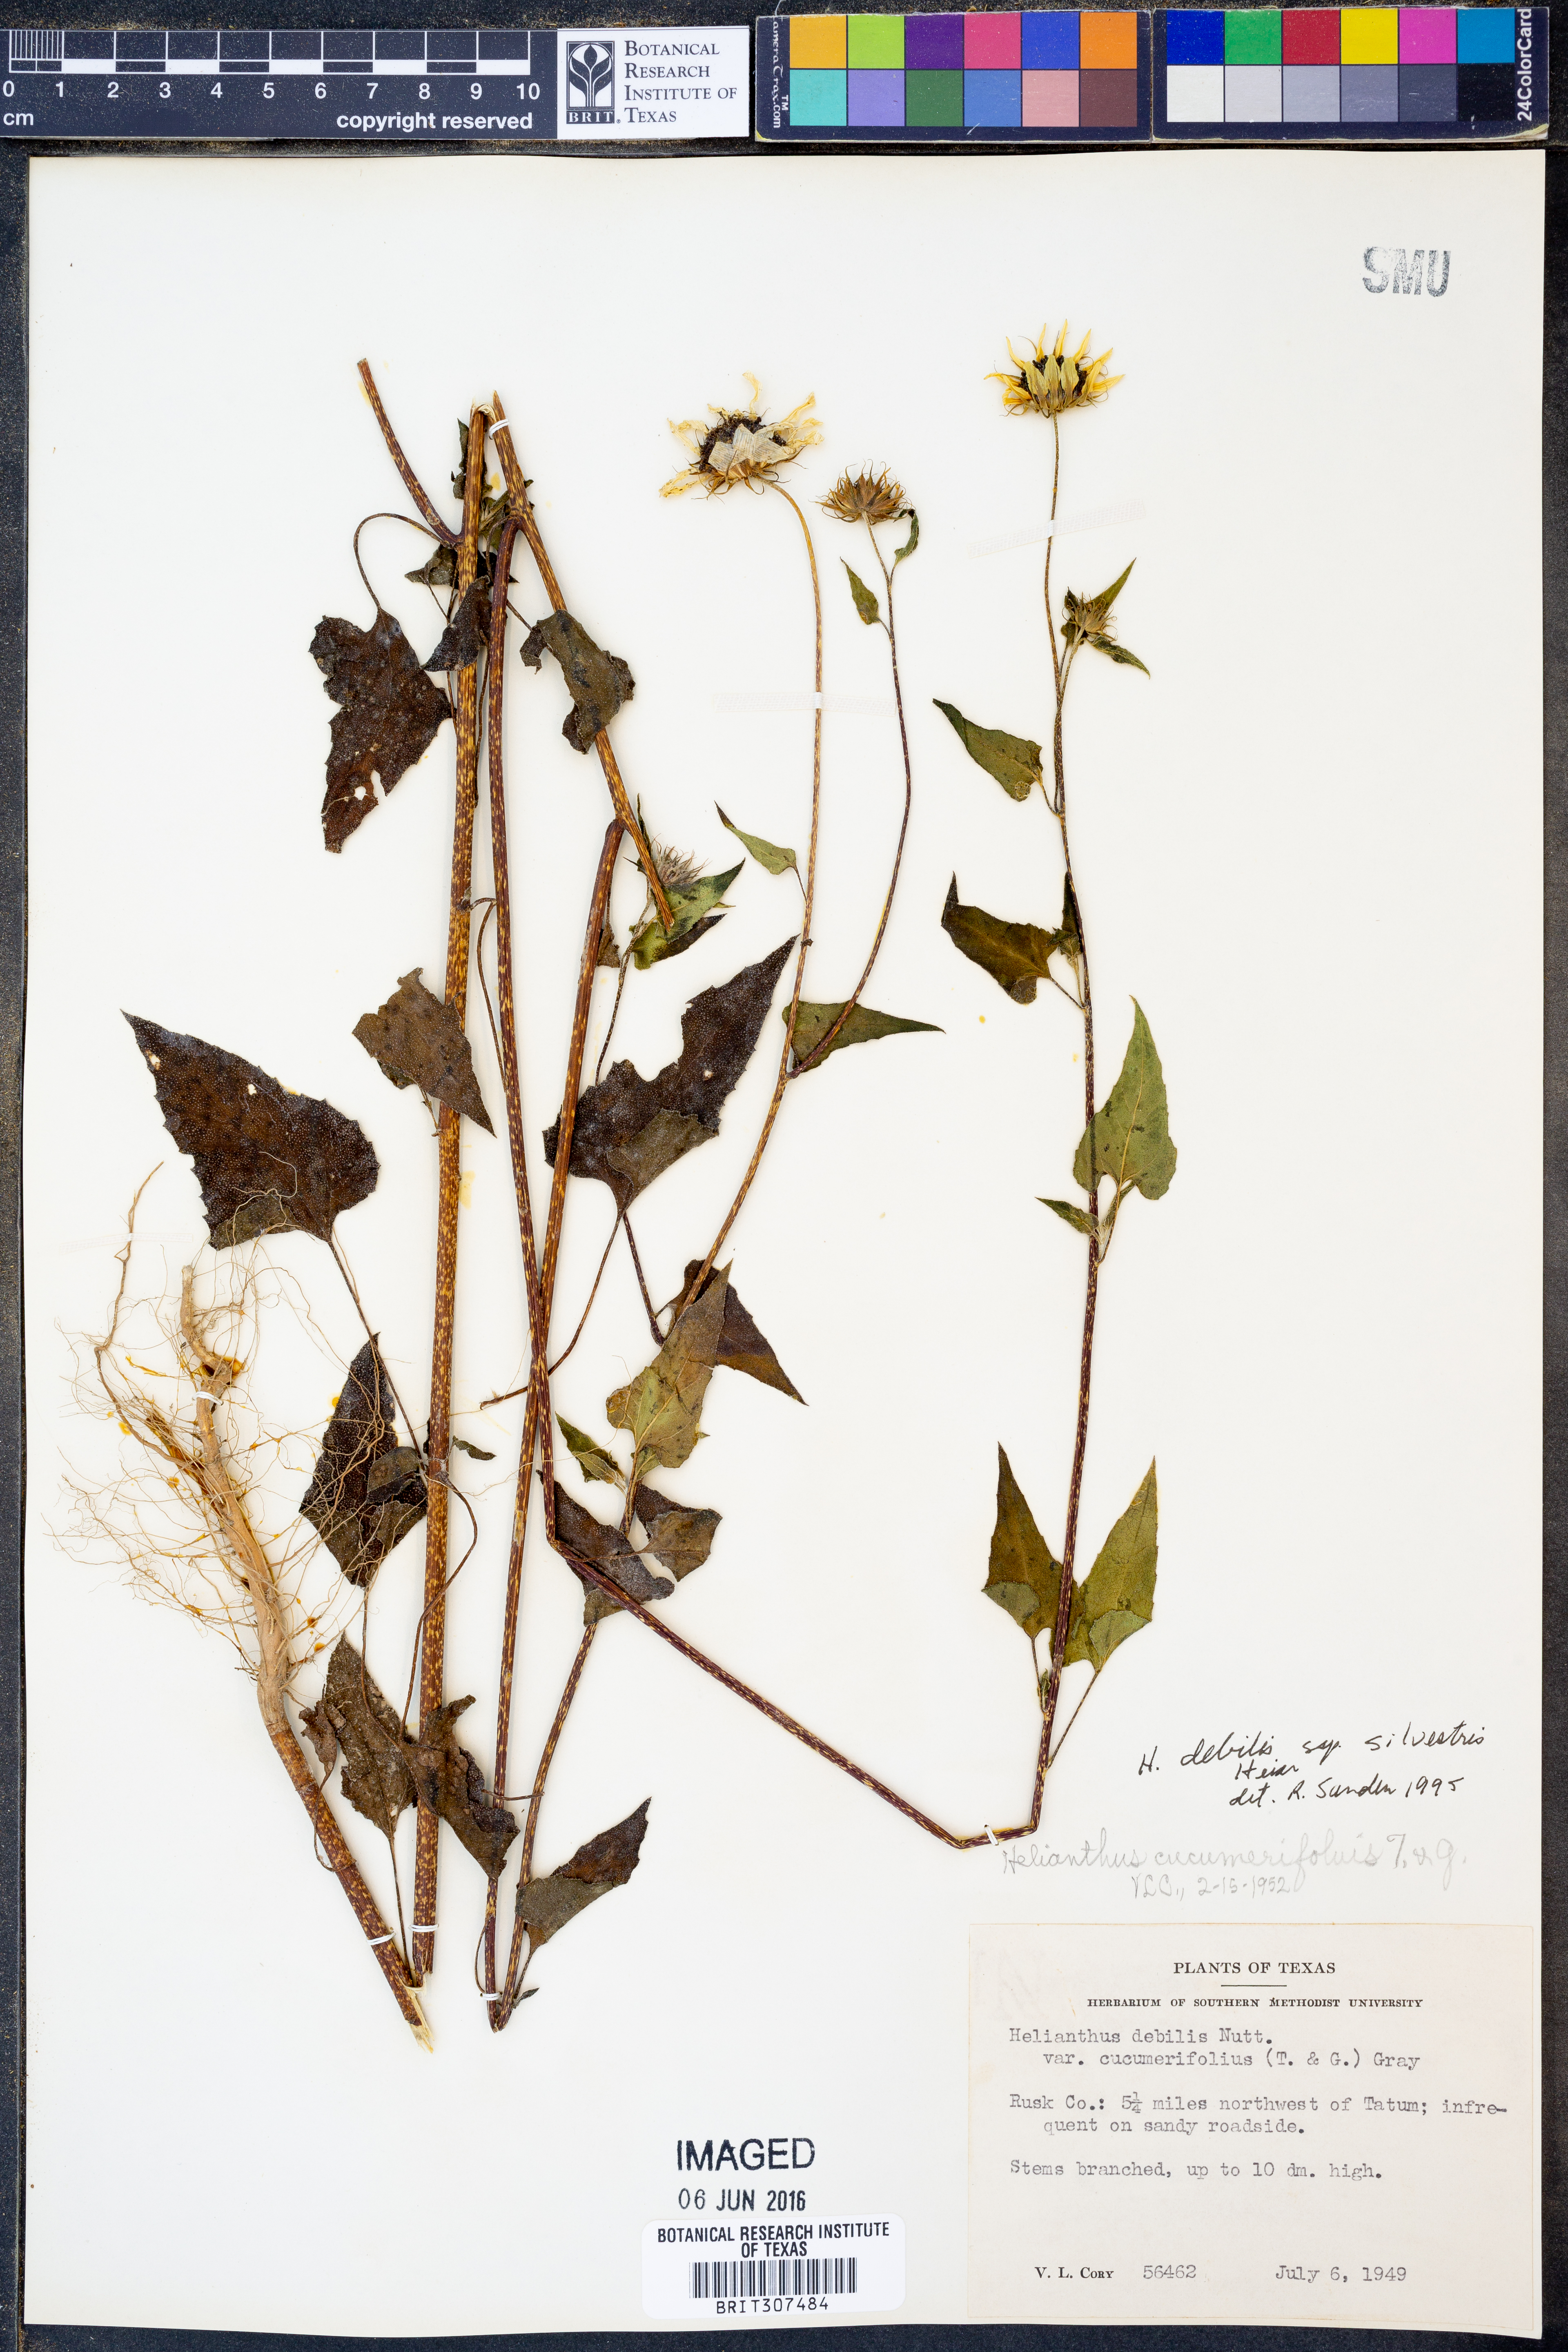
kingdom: Plantae
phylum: Tracheophyta
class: Magnoliopsida
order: Asterales
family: Asteraceae
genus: Helianthus
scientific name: Helianthus debilis
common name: Weak sunflower
